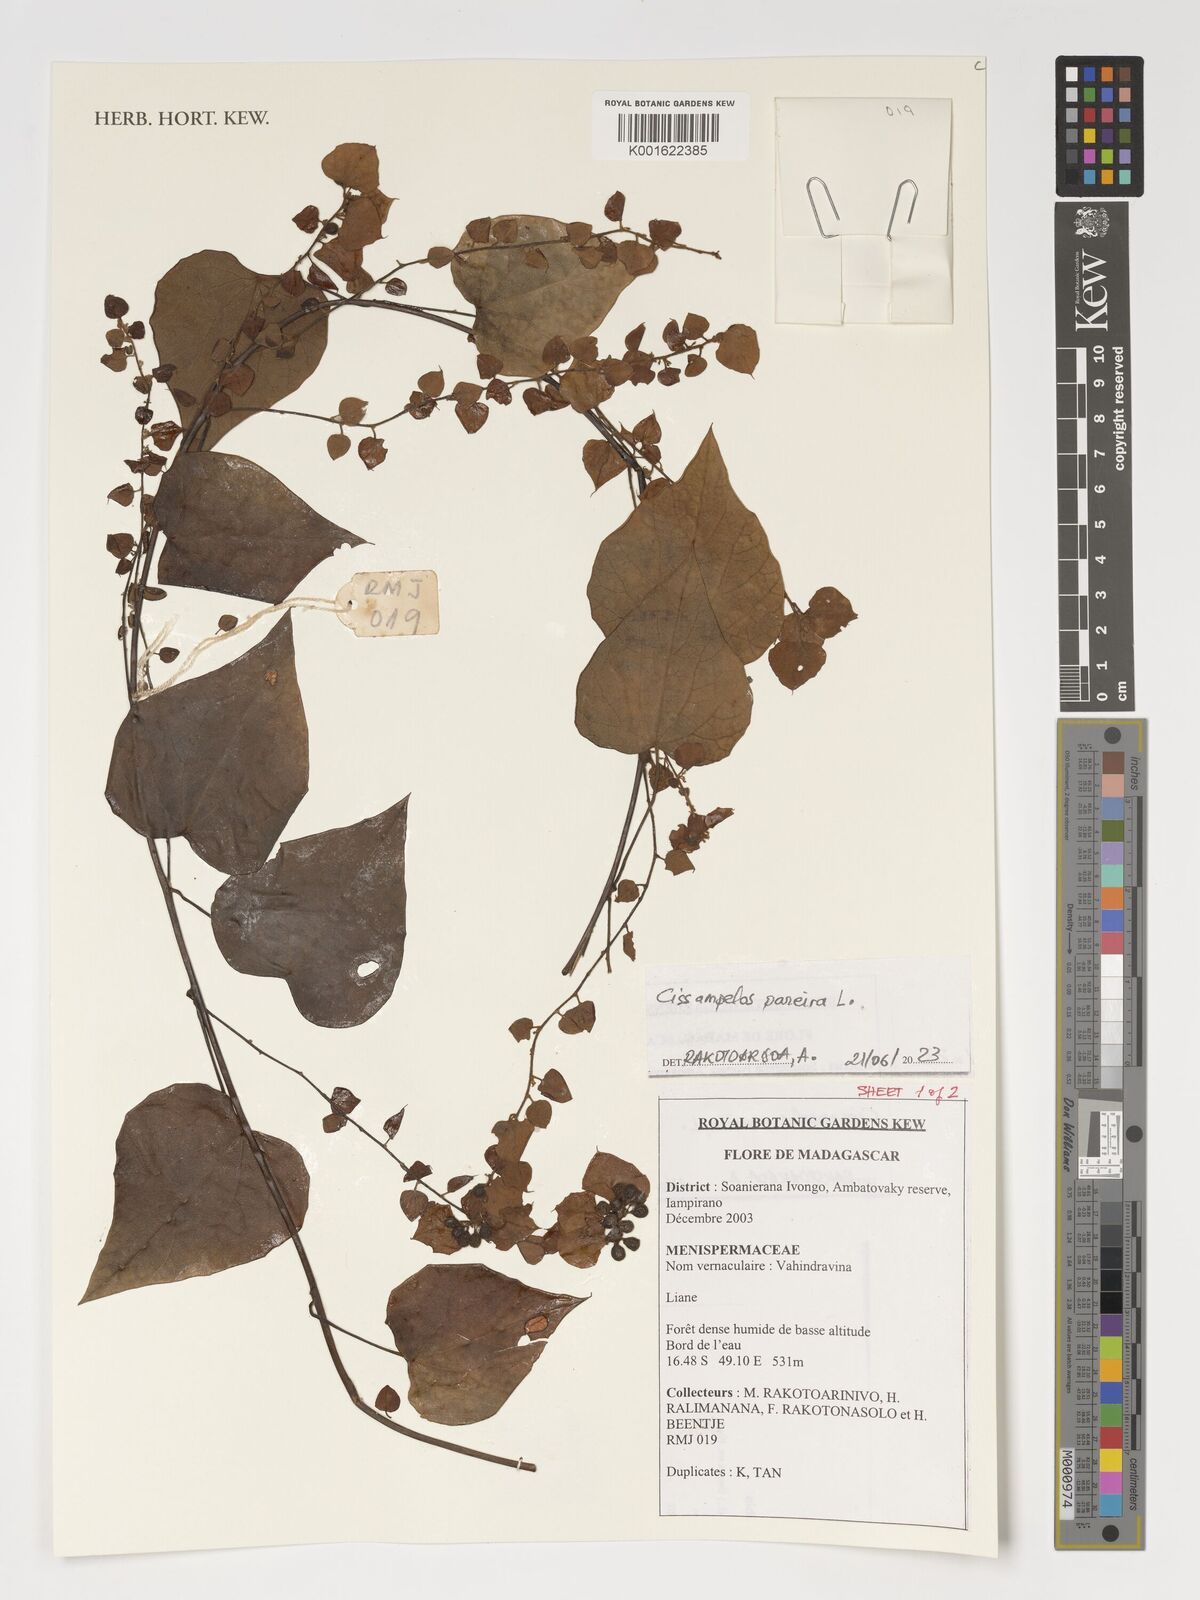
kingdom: Plantae
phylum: Tracheophyta
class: Magnoliopsida
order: Ranunculales
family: Menispermaceae
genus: Cissampelos
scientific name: Cissampelos pareira
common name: Velvetleaf
